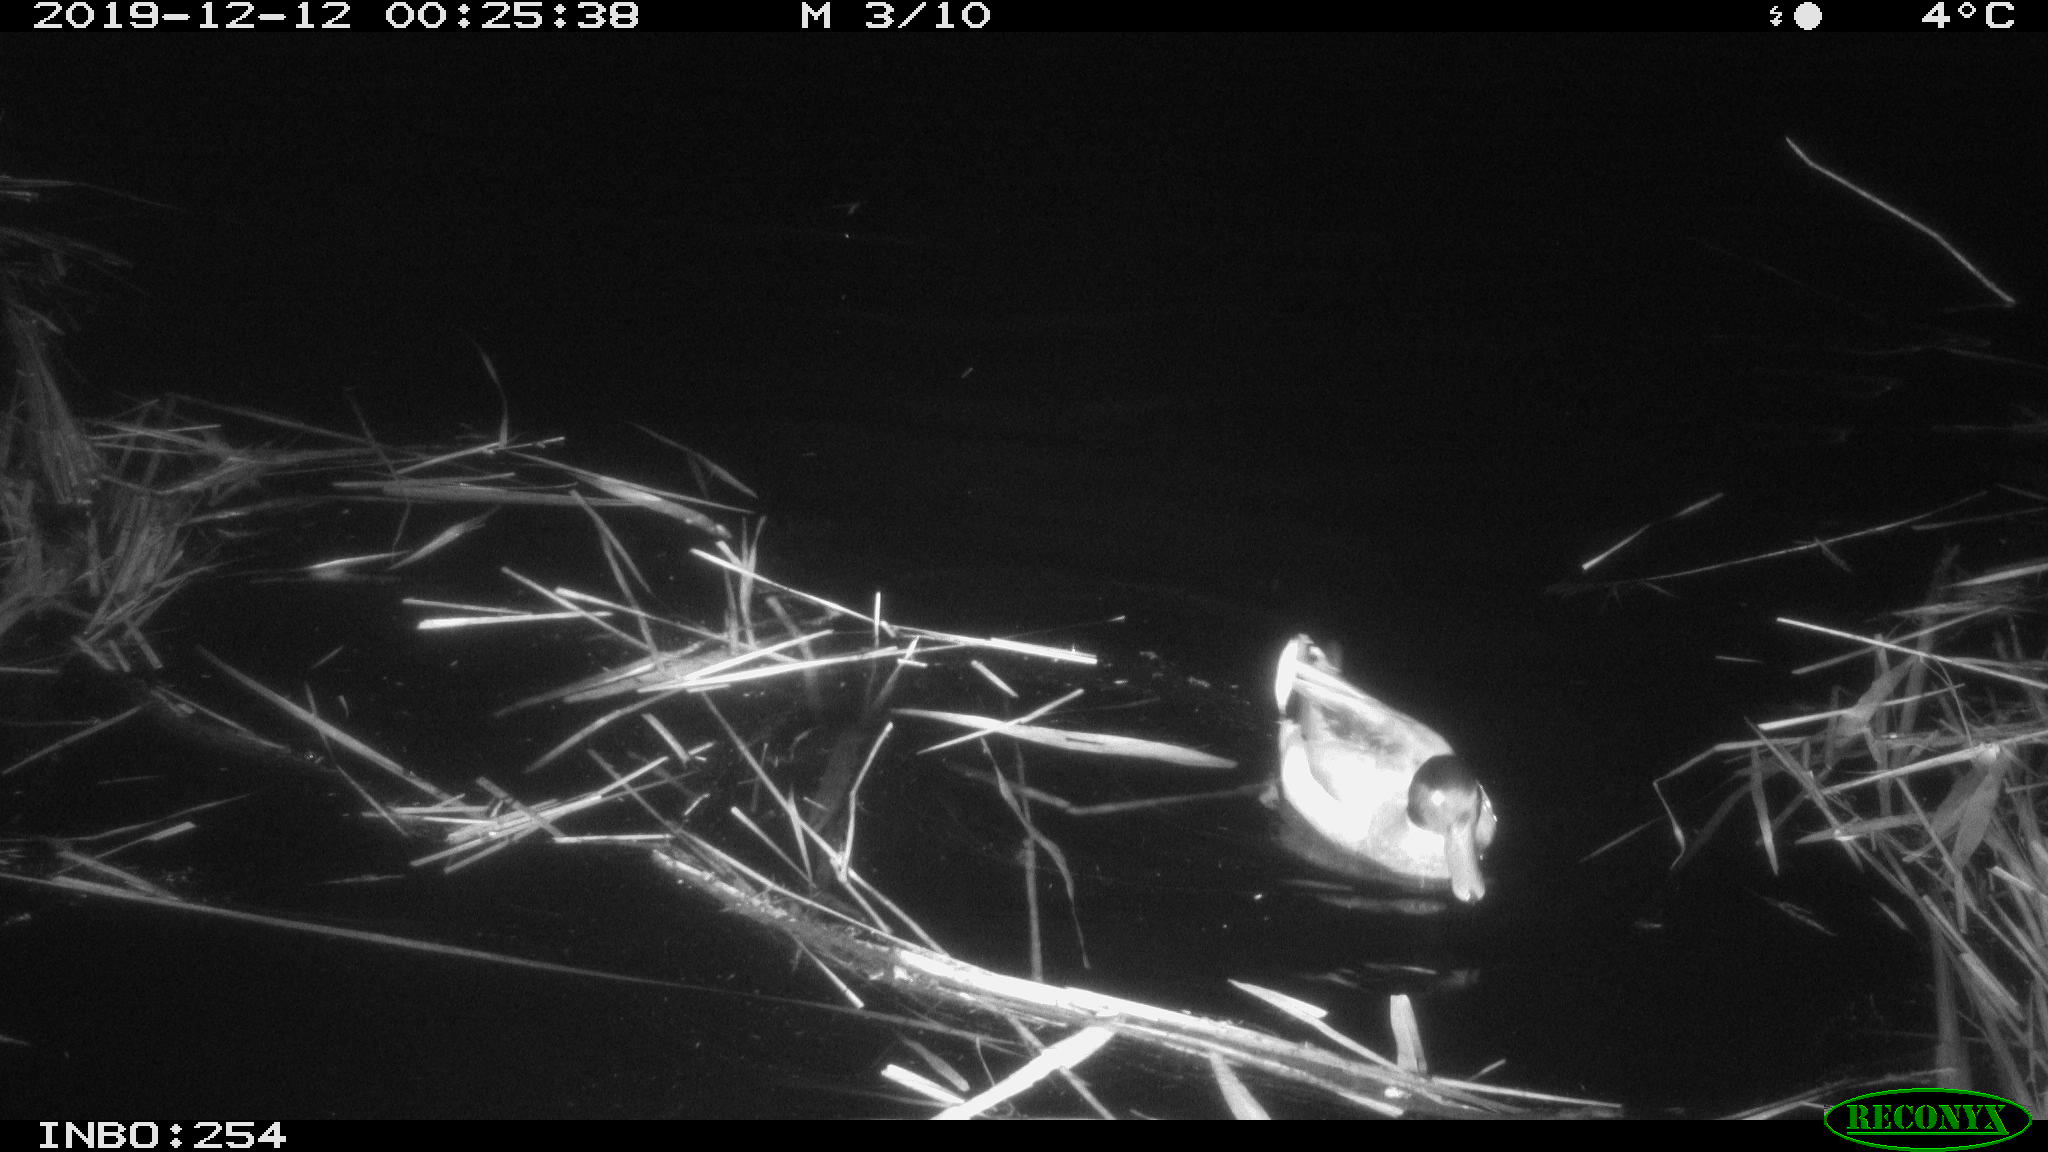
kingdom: Animalia
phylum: Chordata
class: Aves
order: Anseriformes
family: Anatidae
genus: Anas
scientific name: Anas platyrhynchos
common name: Mallard
